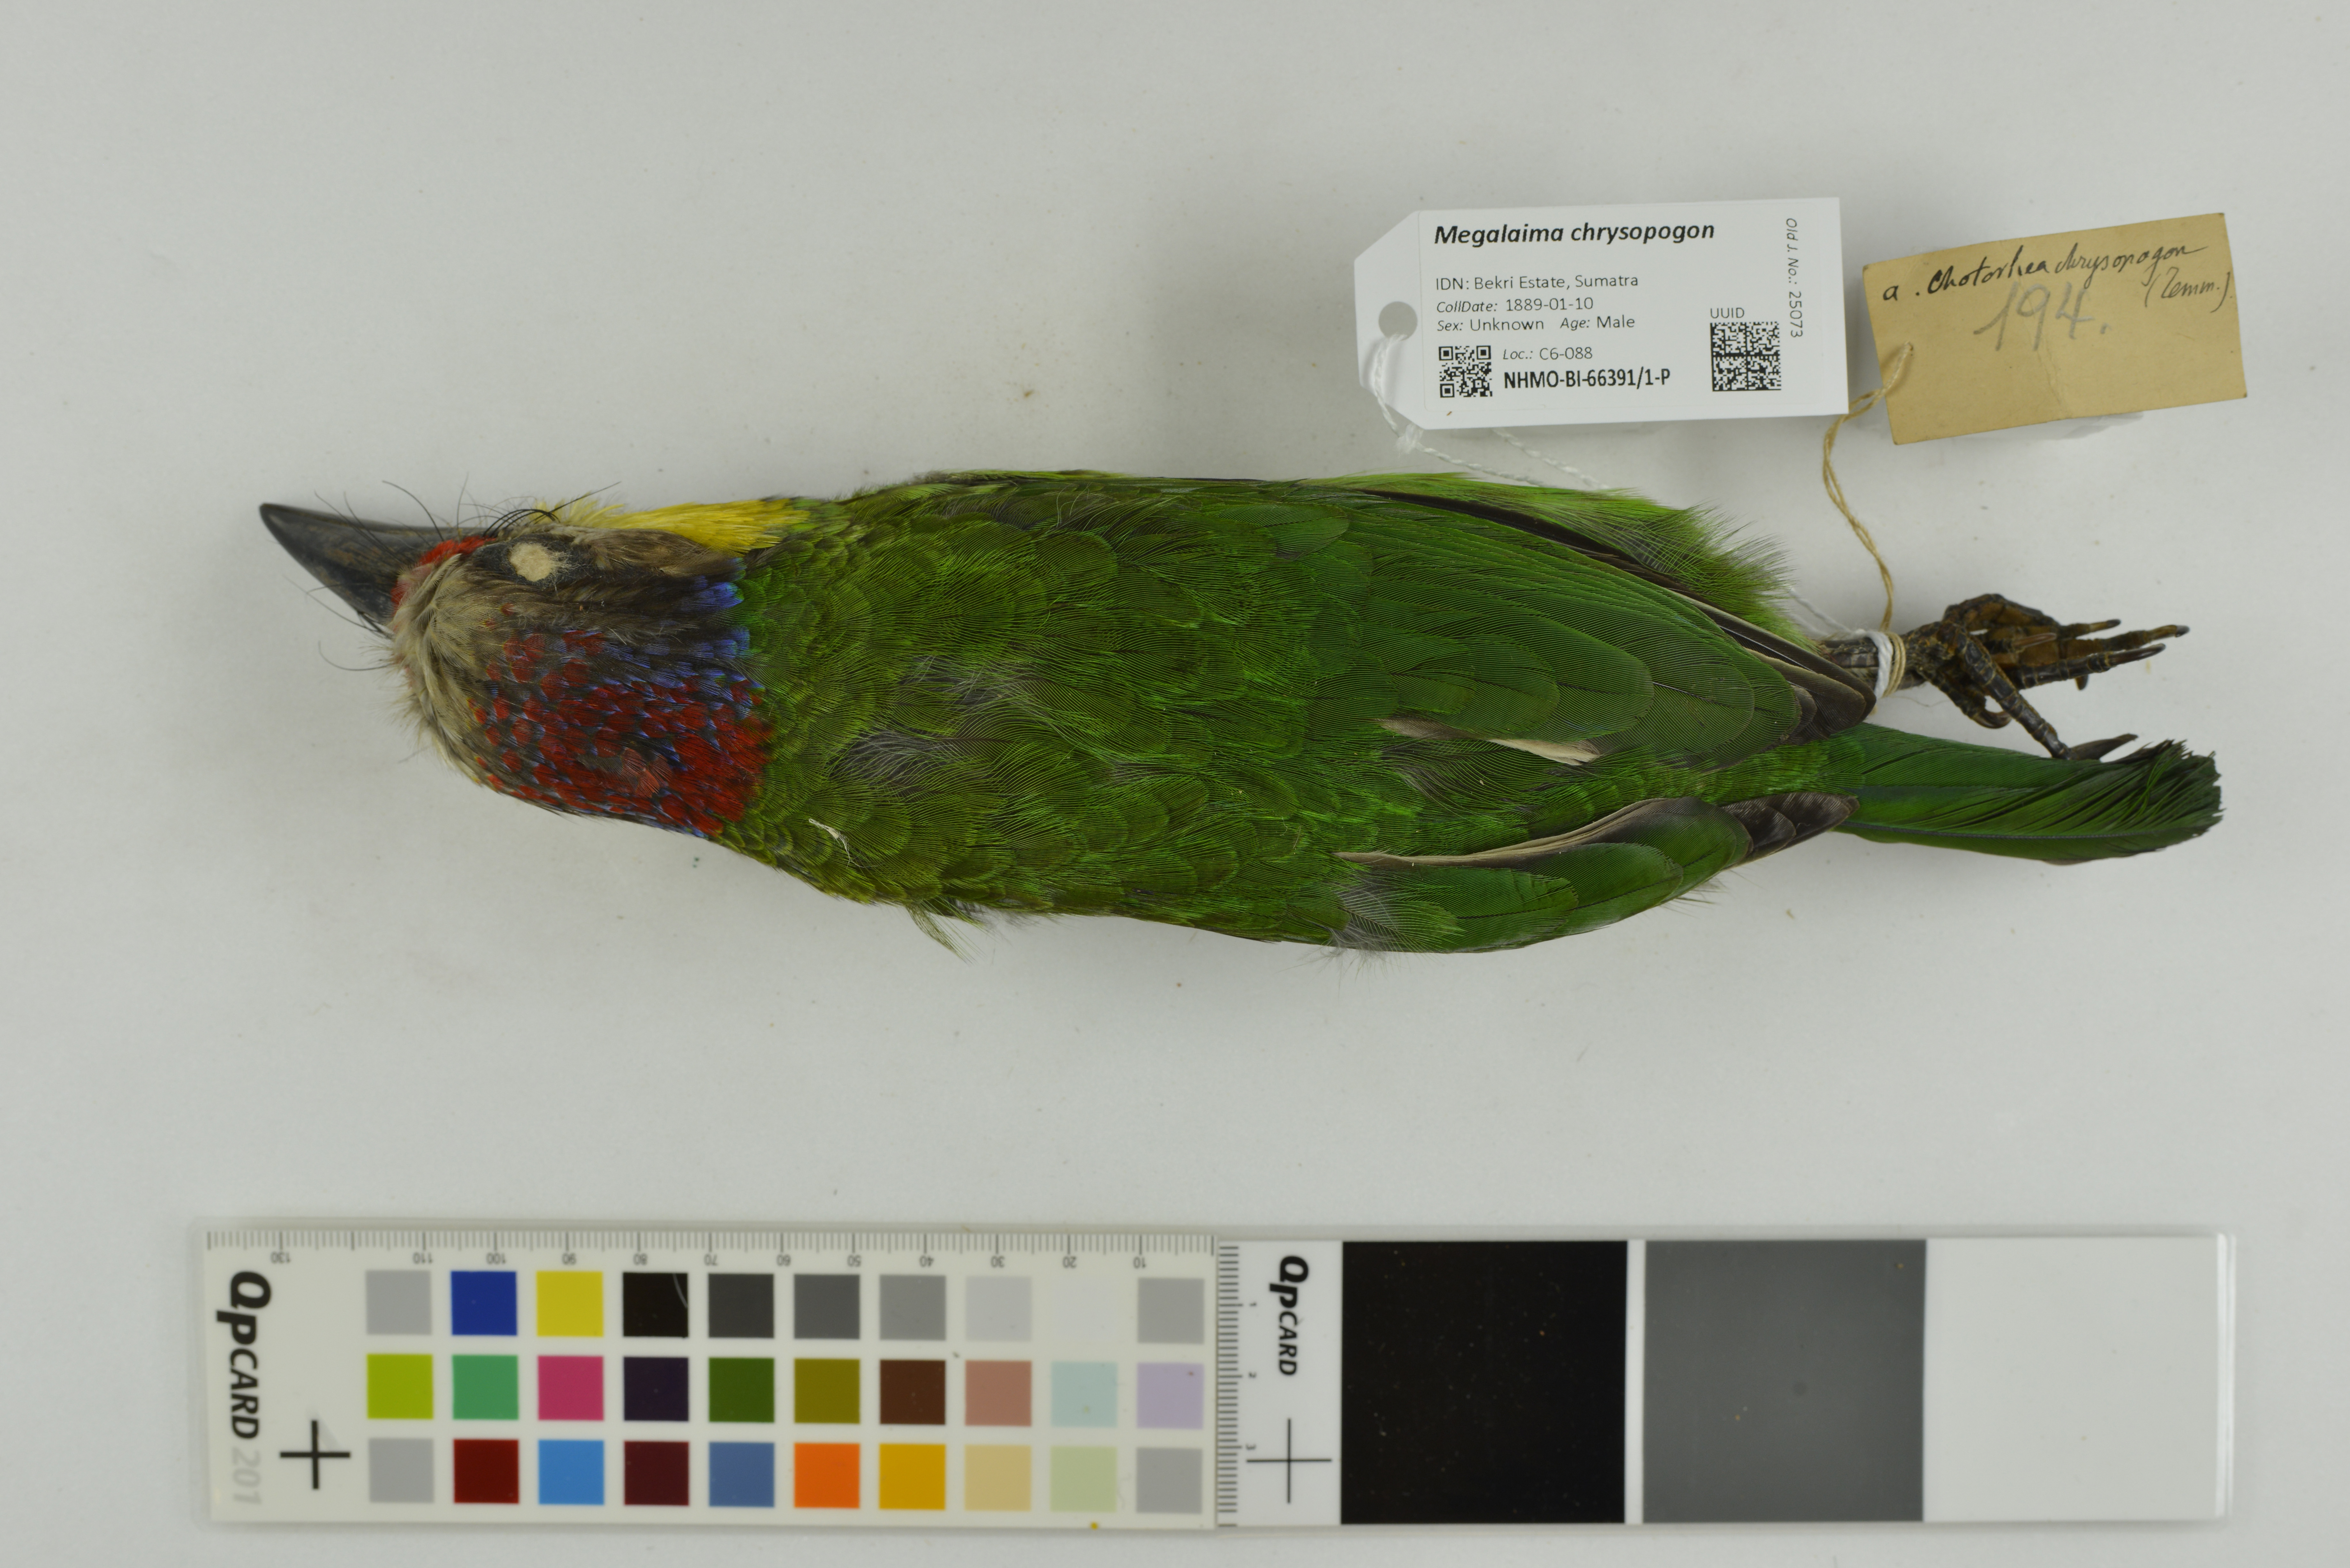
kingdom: Animalia
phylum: Chordata
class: Aves
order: Piciformes
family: Megalaimidae
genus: Psilopogon
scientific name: Psilopogon chrysopogon
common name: Golden-whiskered barbet
